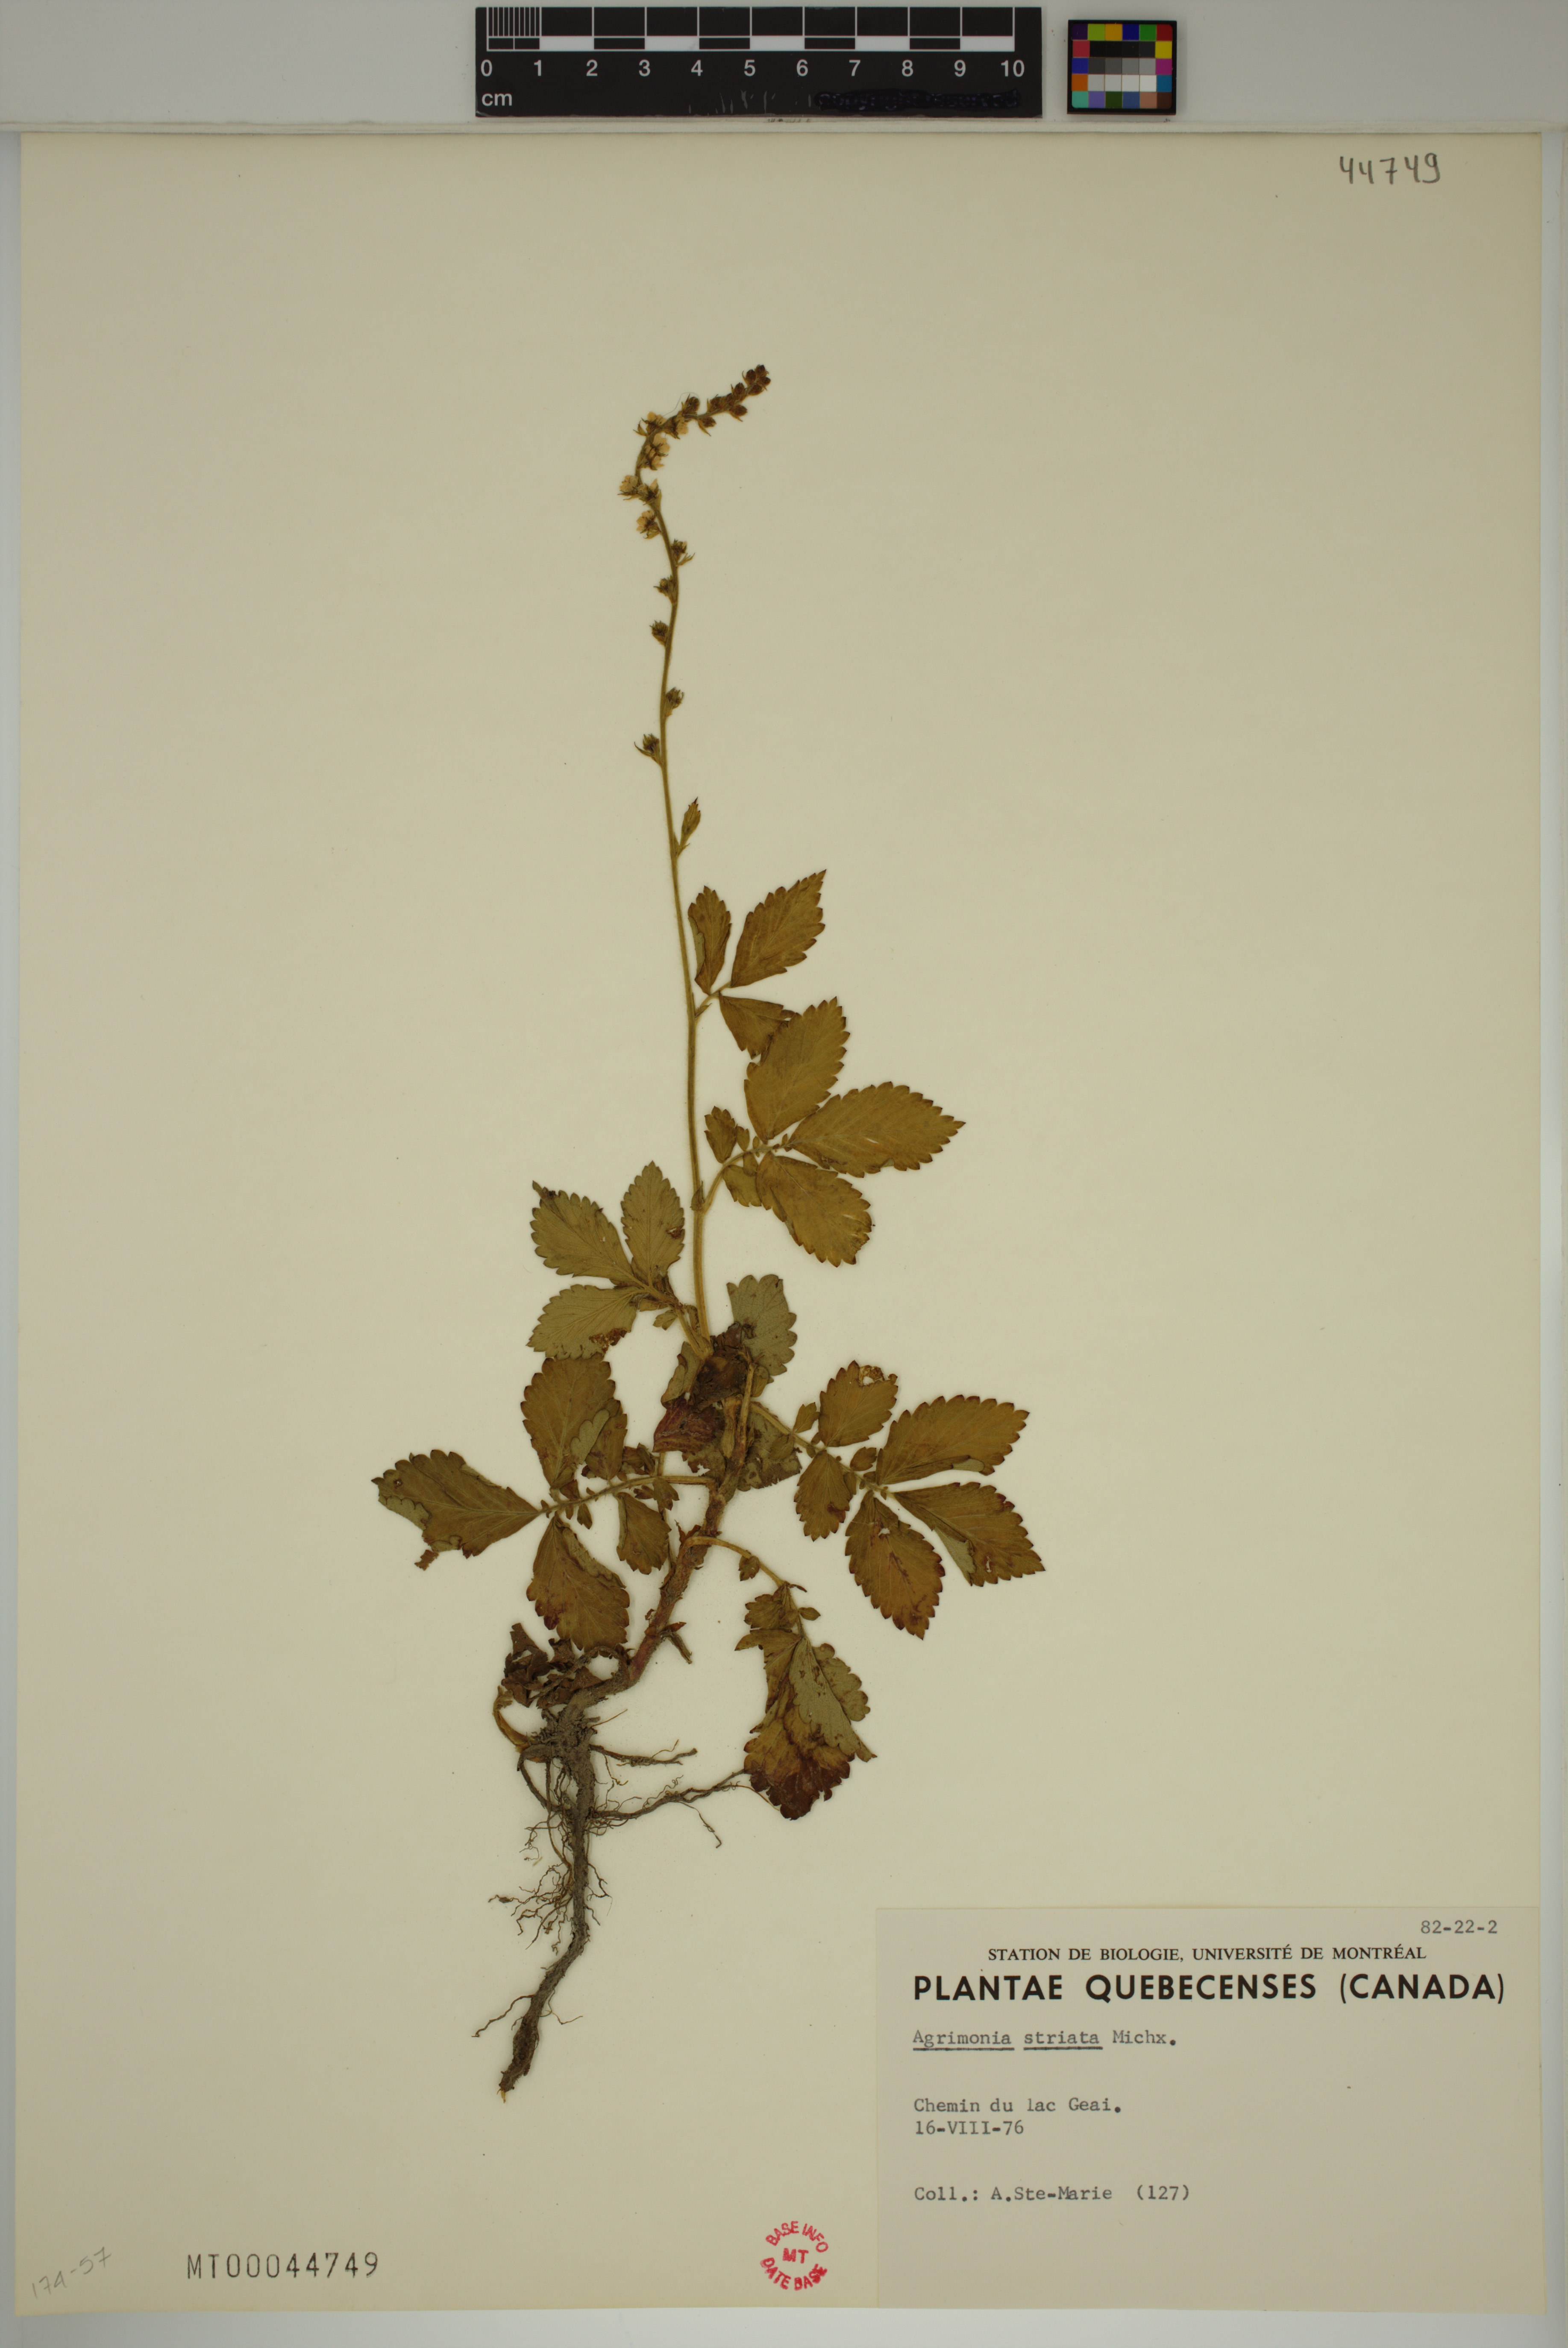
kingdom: Plantae
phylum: Tracheophyta
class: Magnoliopsida
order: Rosales
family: Rosaceae
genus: Agrimonia
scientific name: Agrimonia striata
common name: Britton's agrimony
